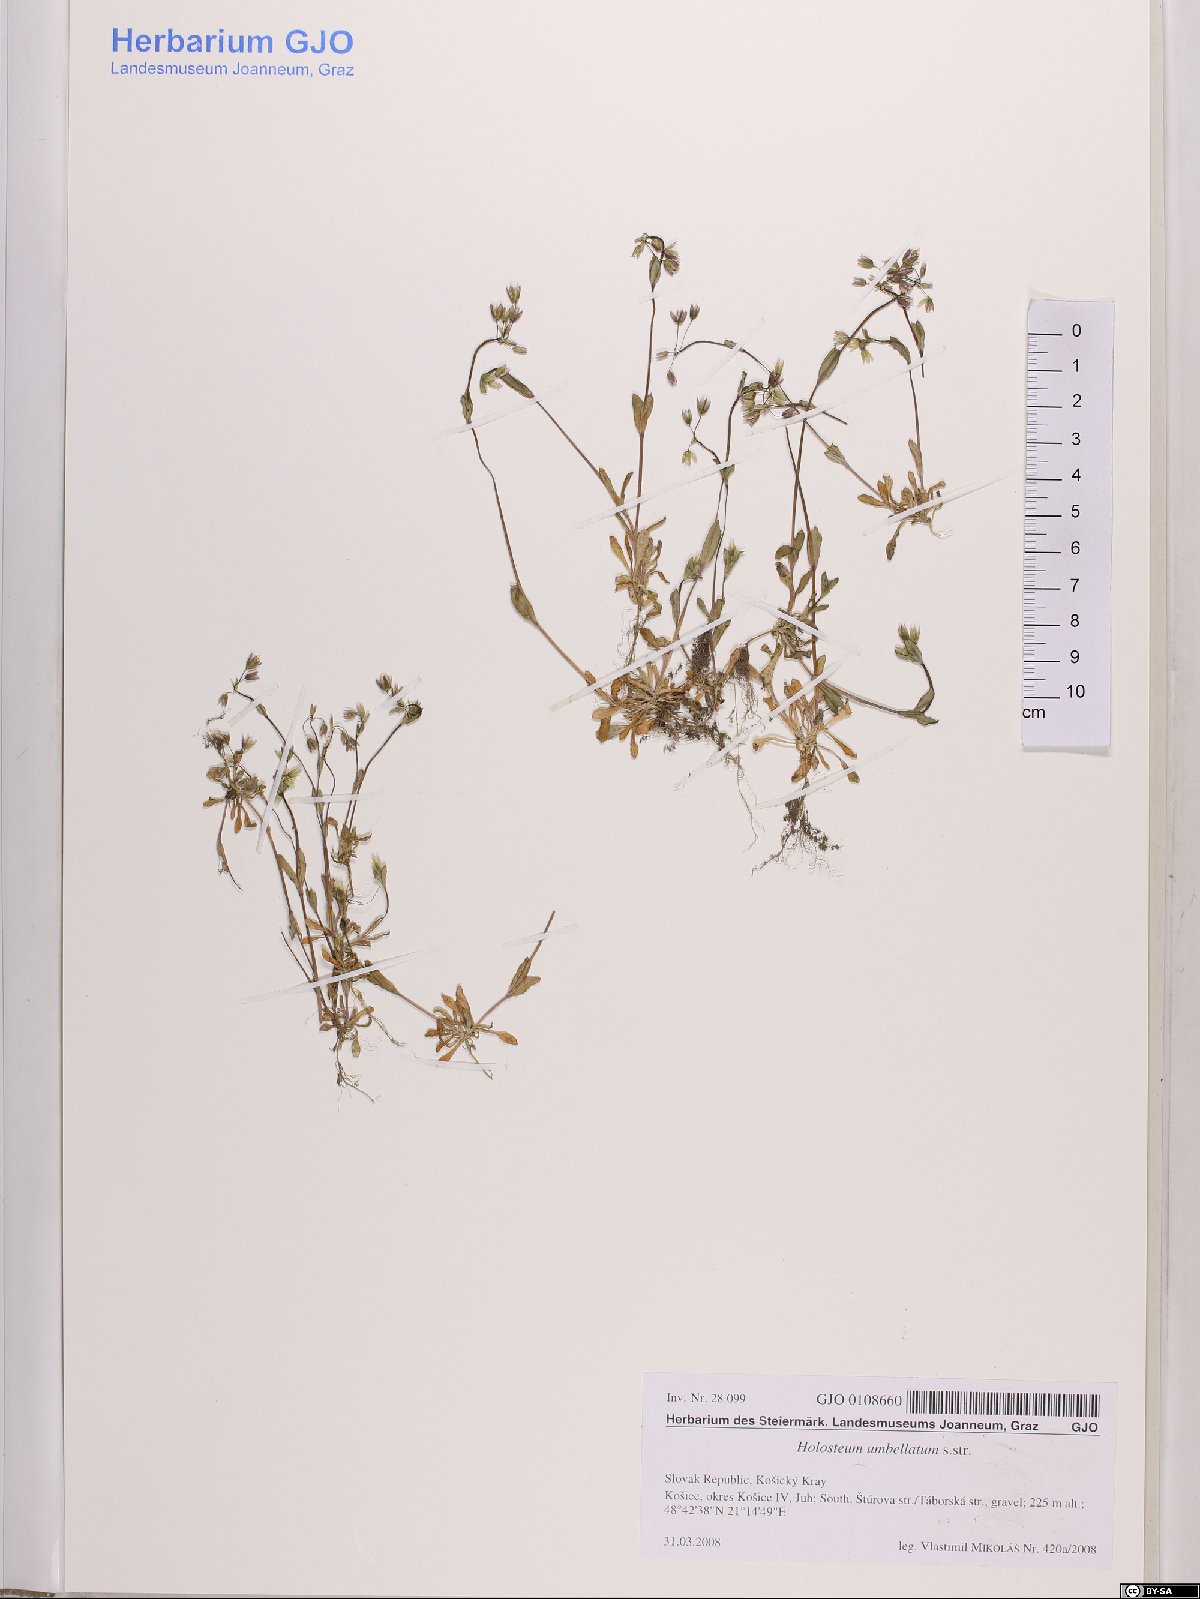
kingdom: Plantae
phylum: Tracheophyta
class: Magnoliopsida
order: Caryophyllales
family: Caryophyllaceae
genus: Holosteum
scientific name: Holosteum umbellatum
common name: Jagged chickweed
